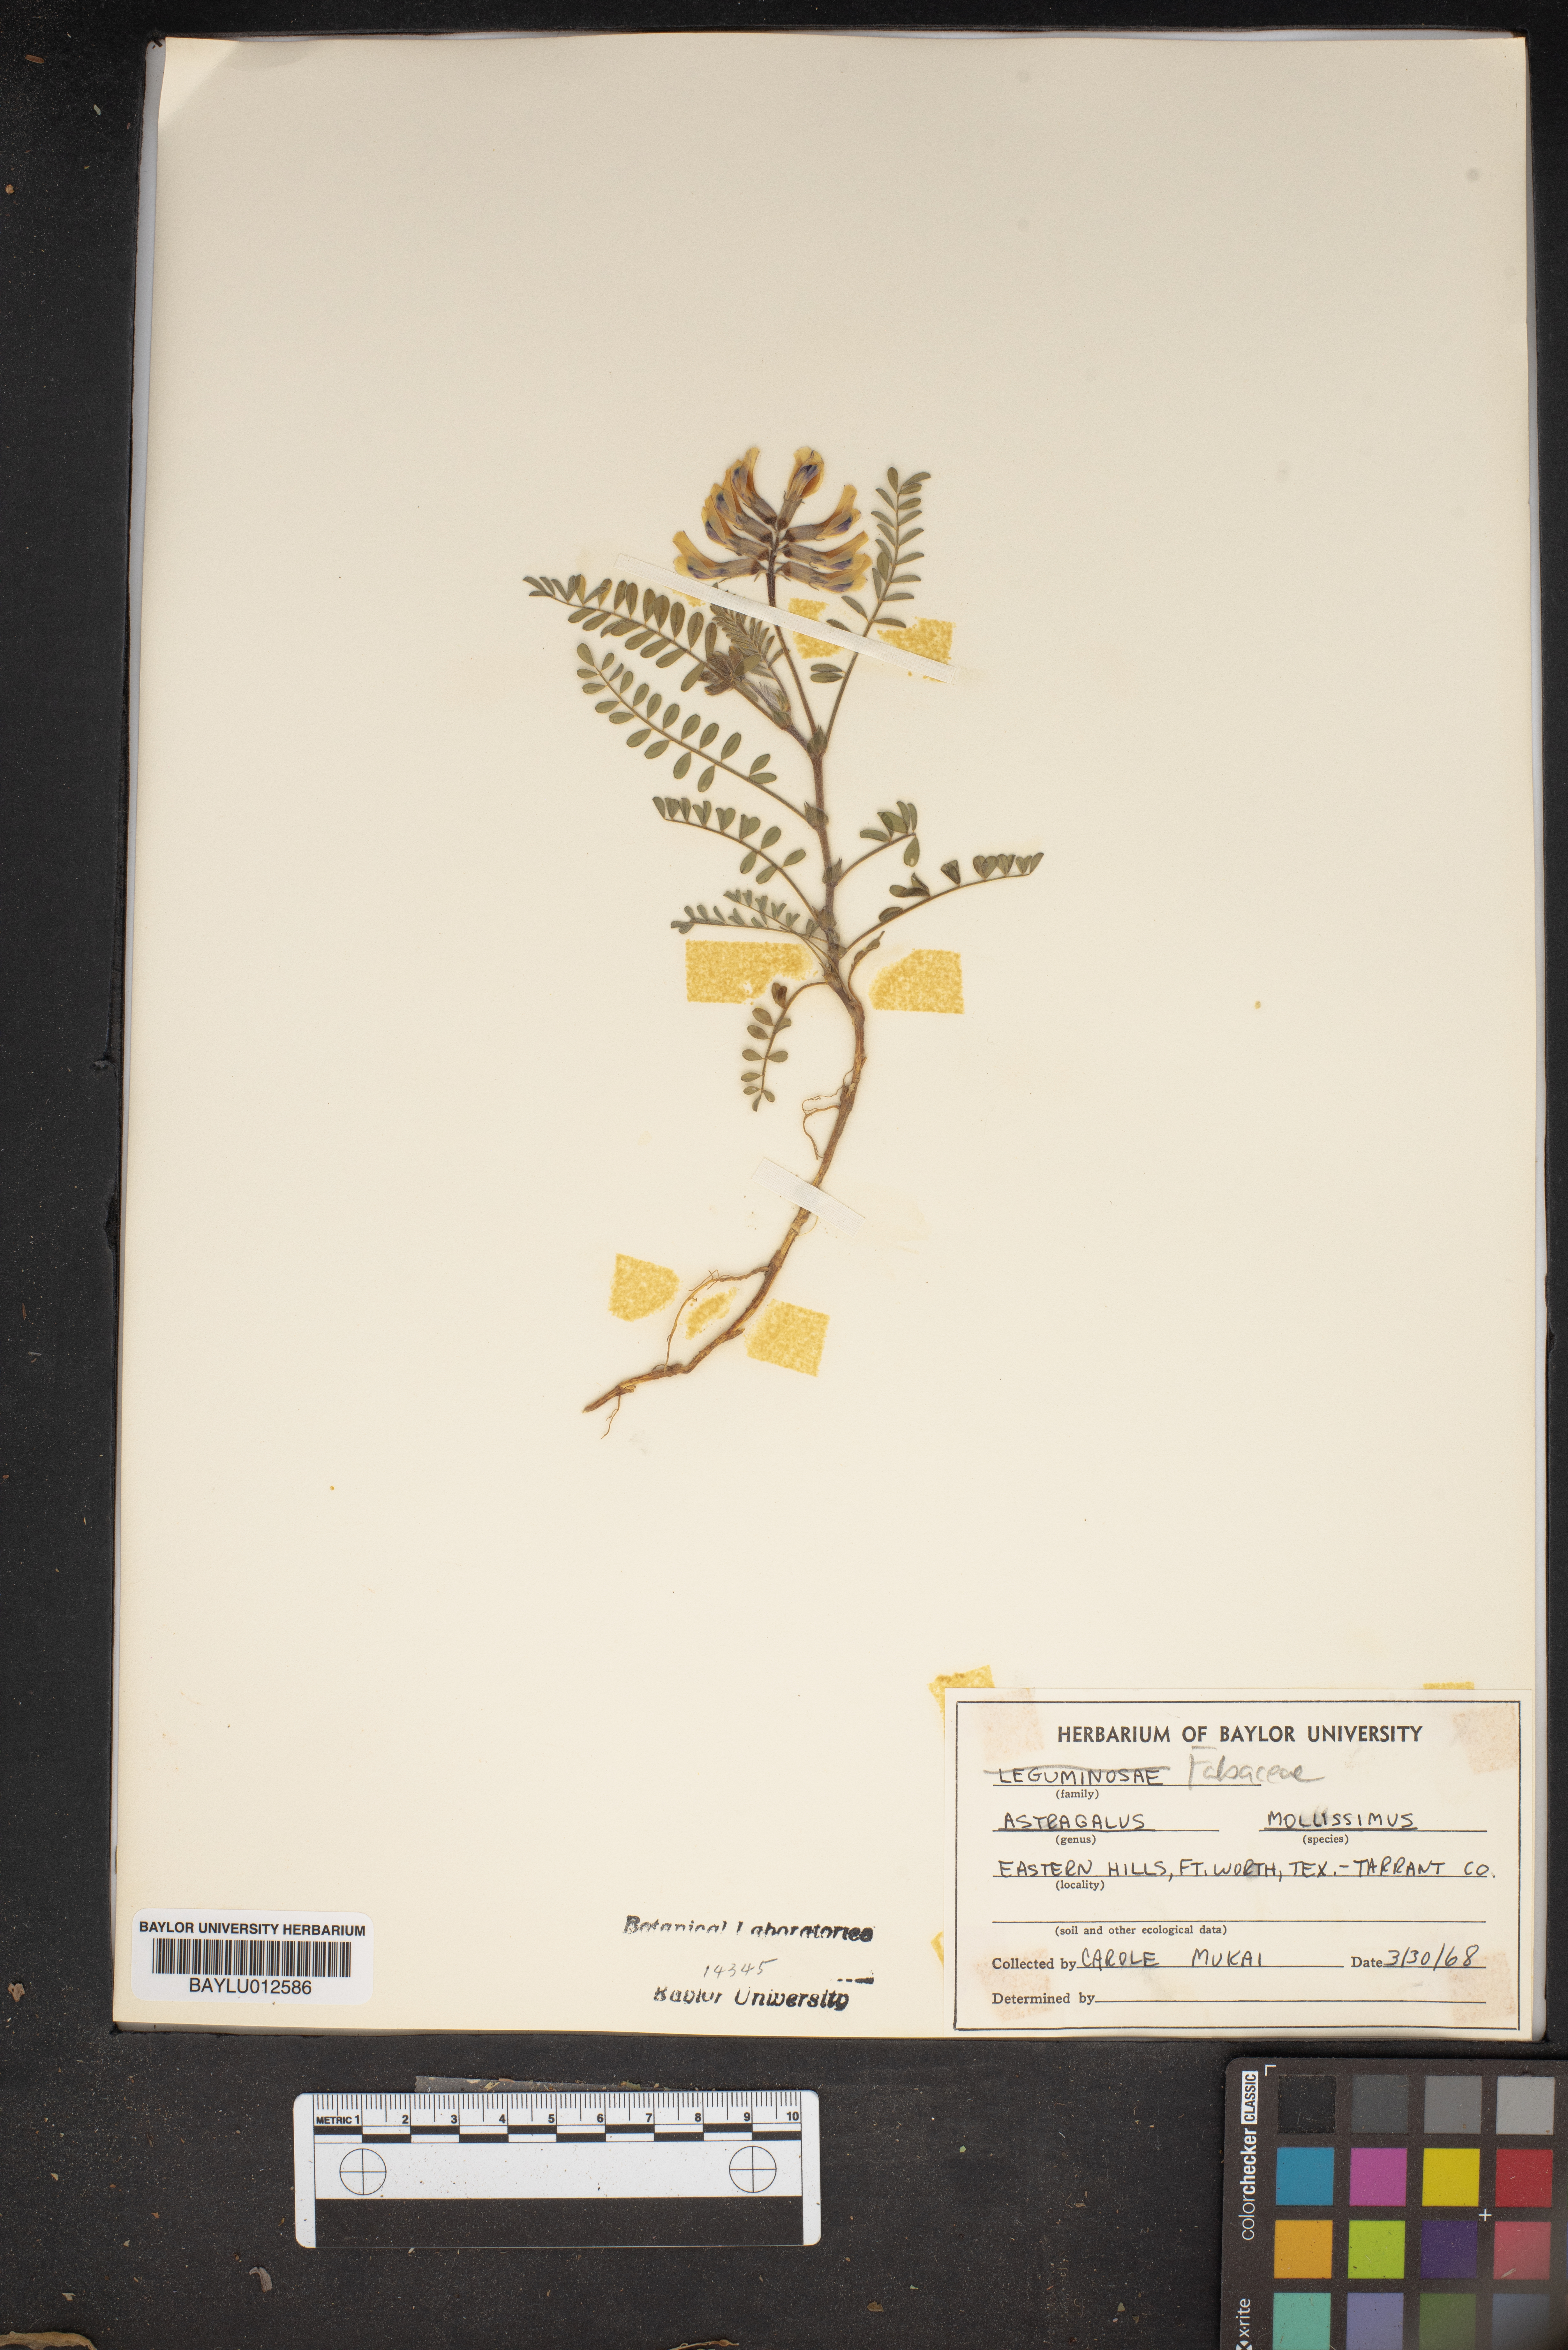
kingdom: Plantae
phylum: Tracheophyta
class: Magnoliopsida
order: Fabales
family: Fabaceae
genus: Astragalus
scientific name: Astragalus mollissimus
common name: Woolly locoweed
